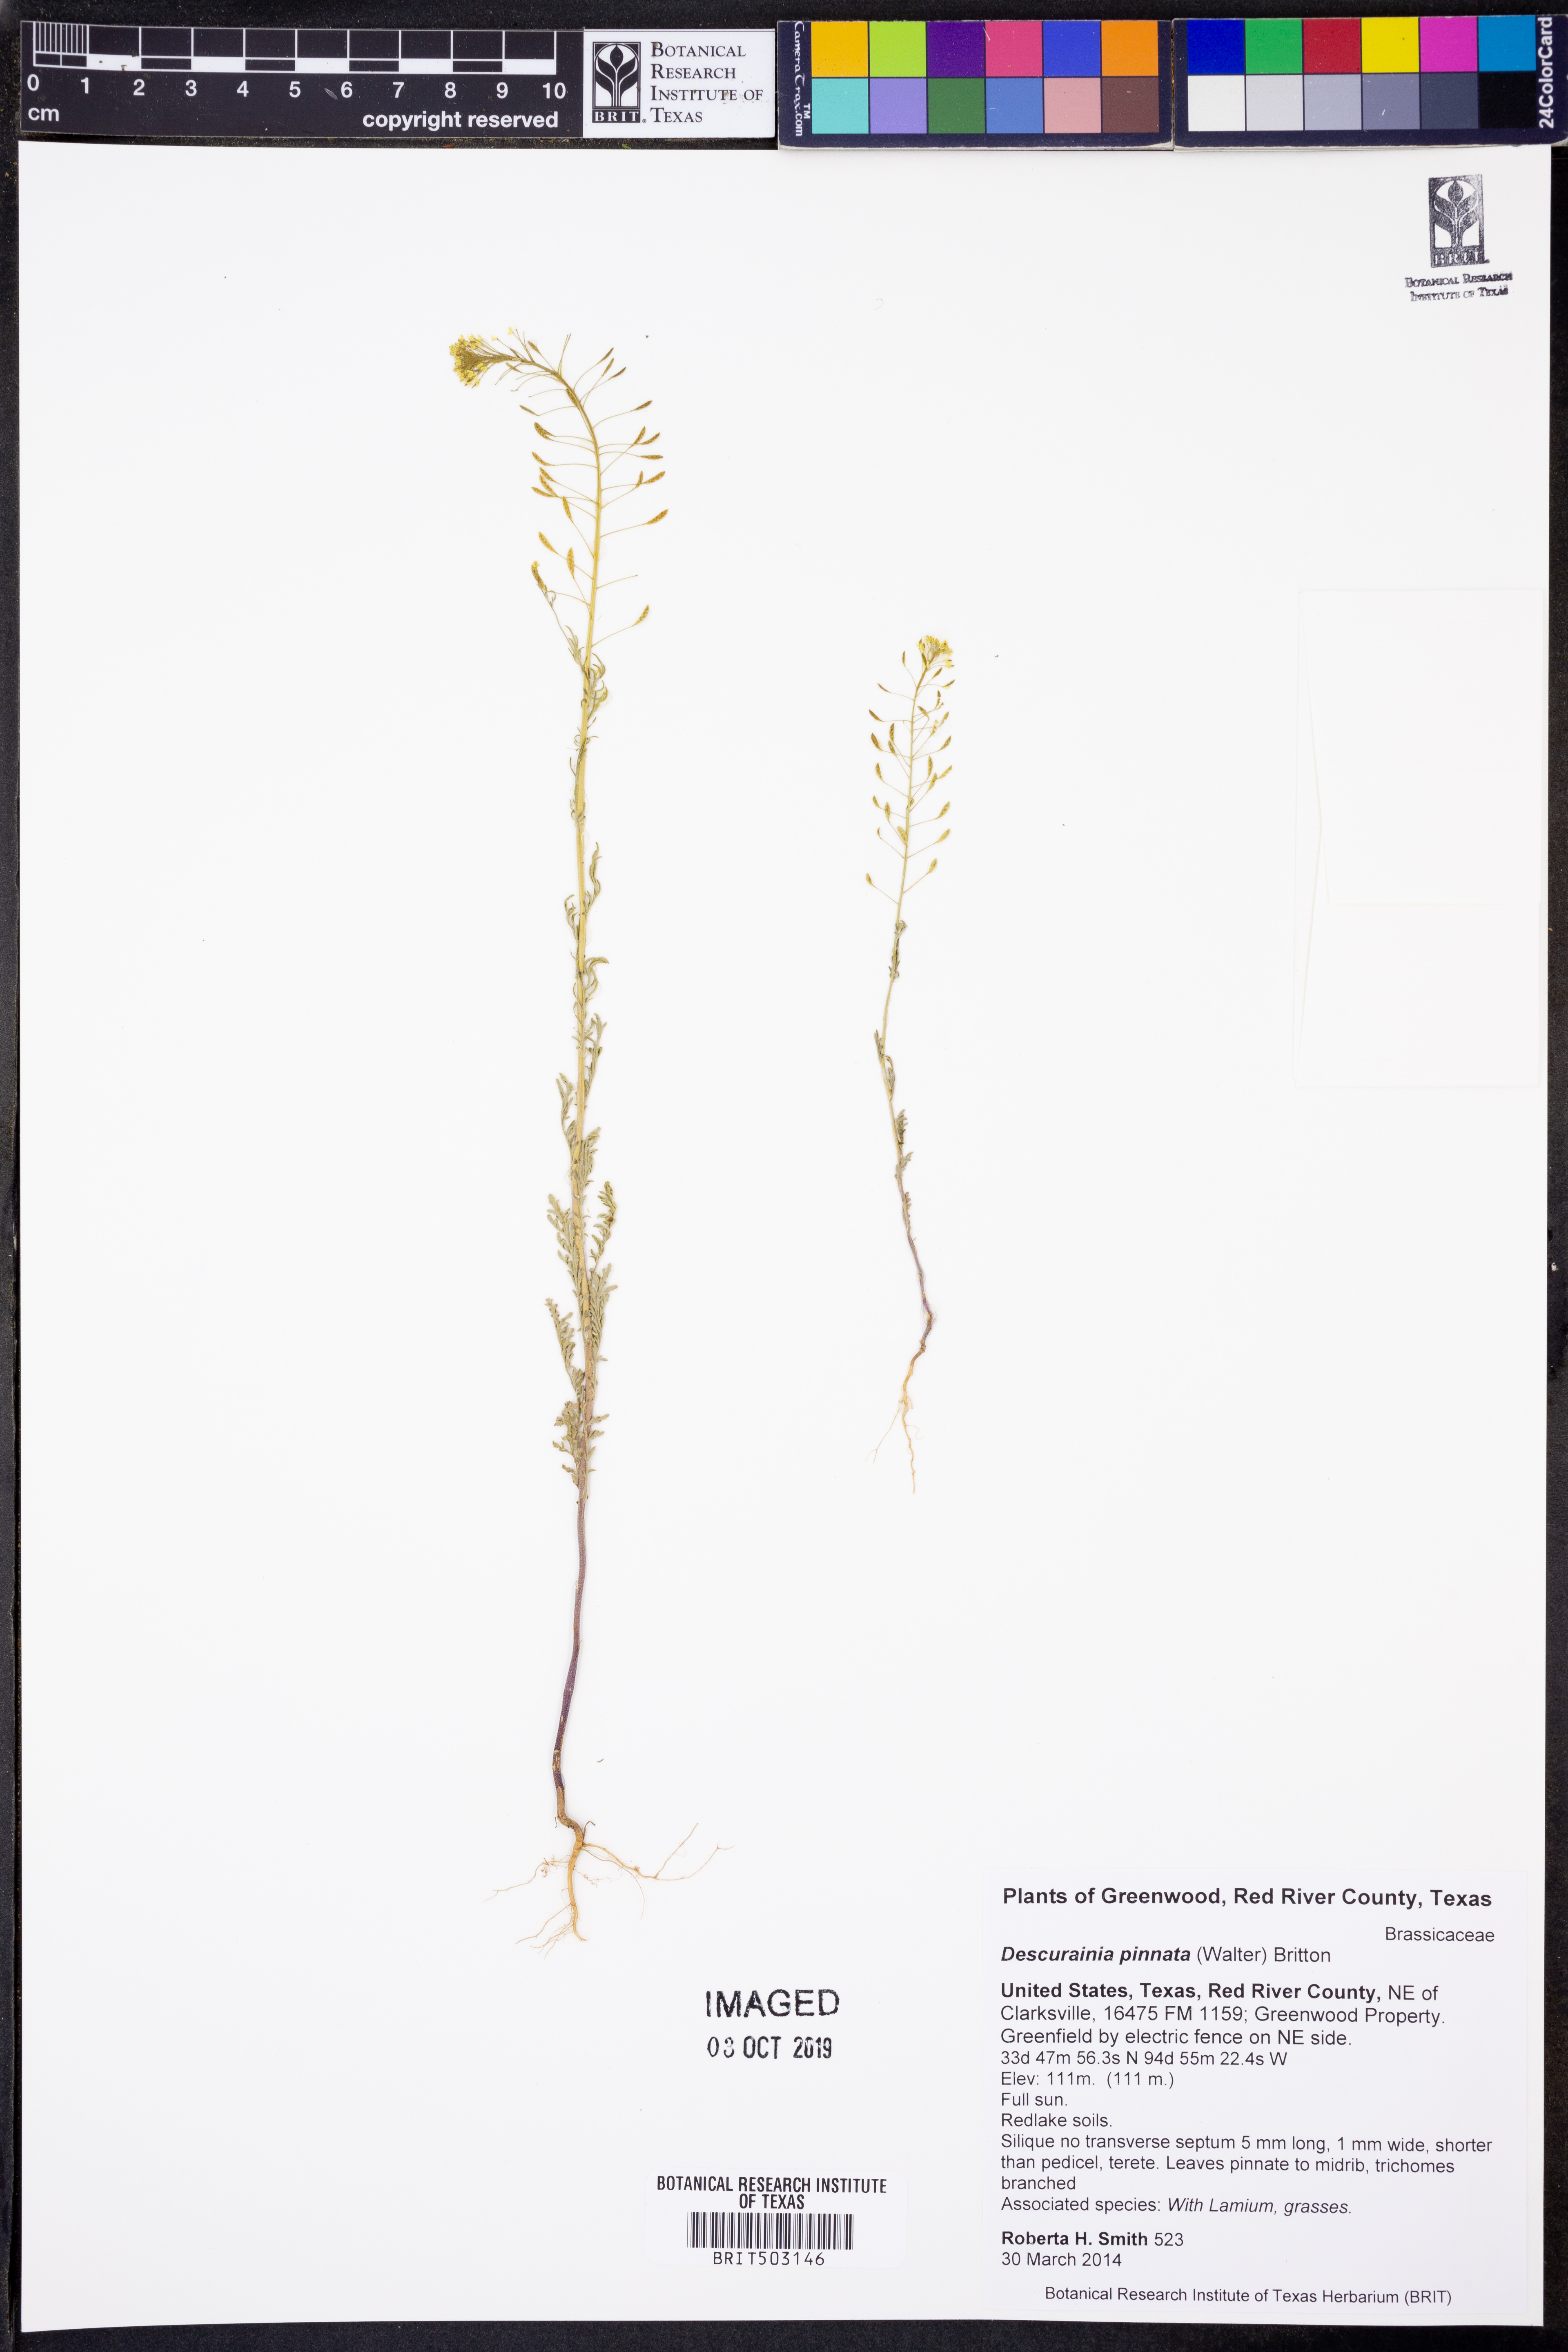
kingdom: Plantae
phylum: Tracheophyta
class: Magnoliopsida
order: Brassicales
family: Brassicaceae
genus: Descurainia
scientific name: Descurainia pinnata
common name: Western tansy mustard
